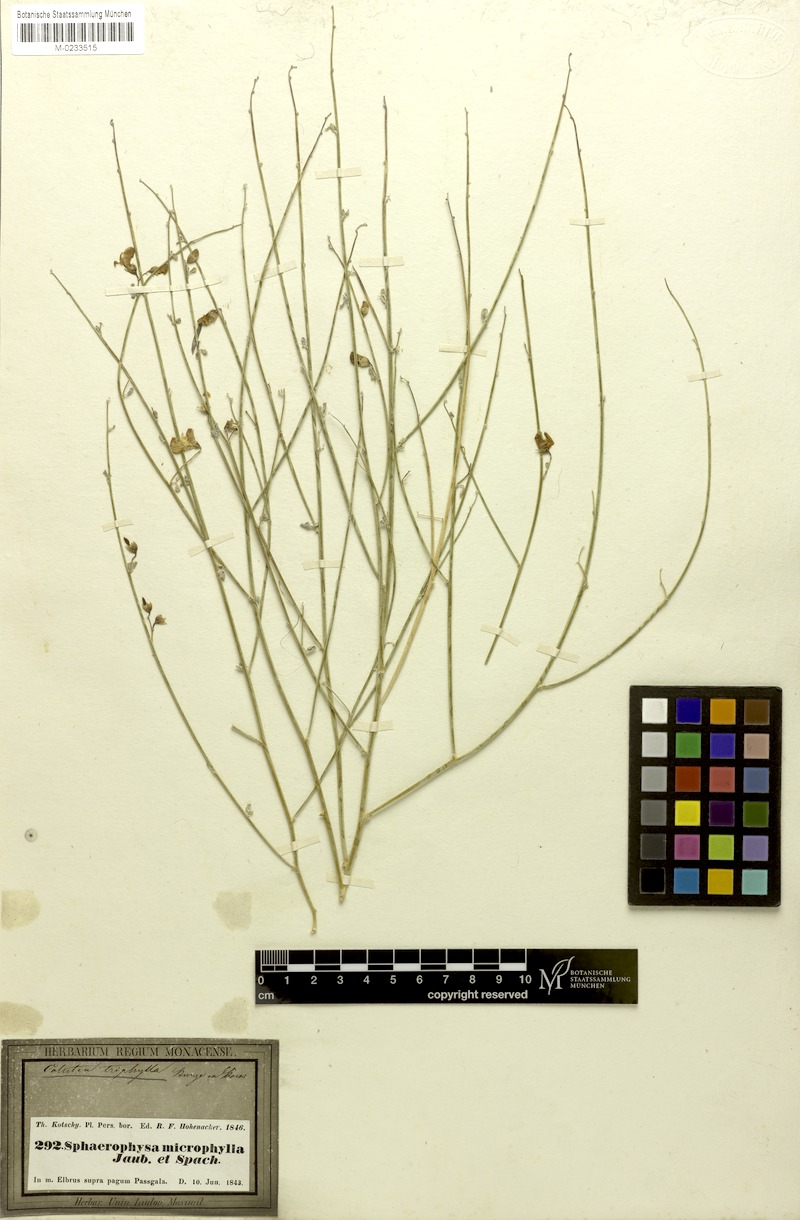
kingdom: Plantae
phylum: Tracheophyta
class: Magnoliopsida
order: Fabales
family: Fabaceae
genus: Colutea
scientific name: Colutea triphylla
